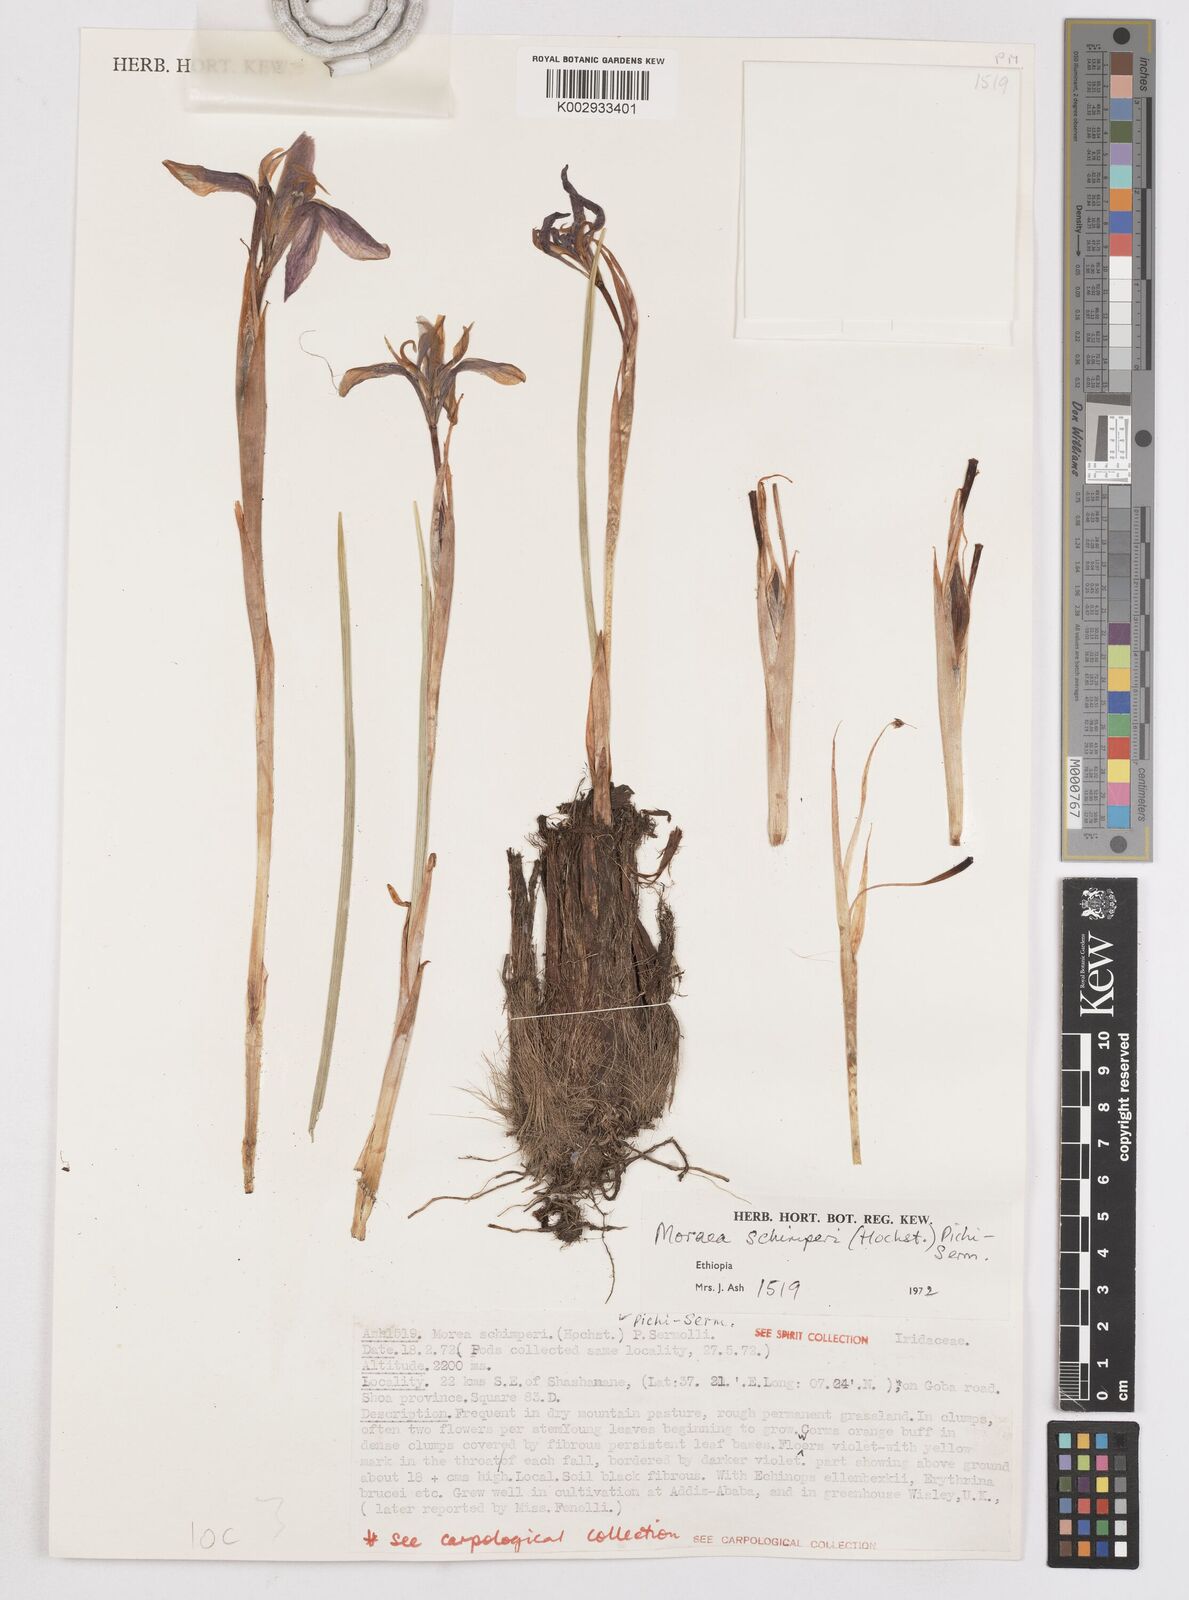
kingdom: Plantae
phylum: Tracheophyta
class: Liliopsida
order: Asparagales
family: Iridaceae
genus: Moraea
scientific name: Moraea schimperi
